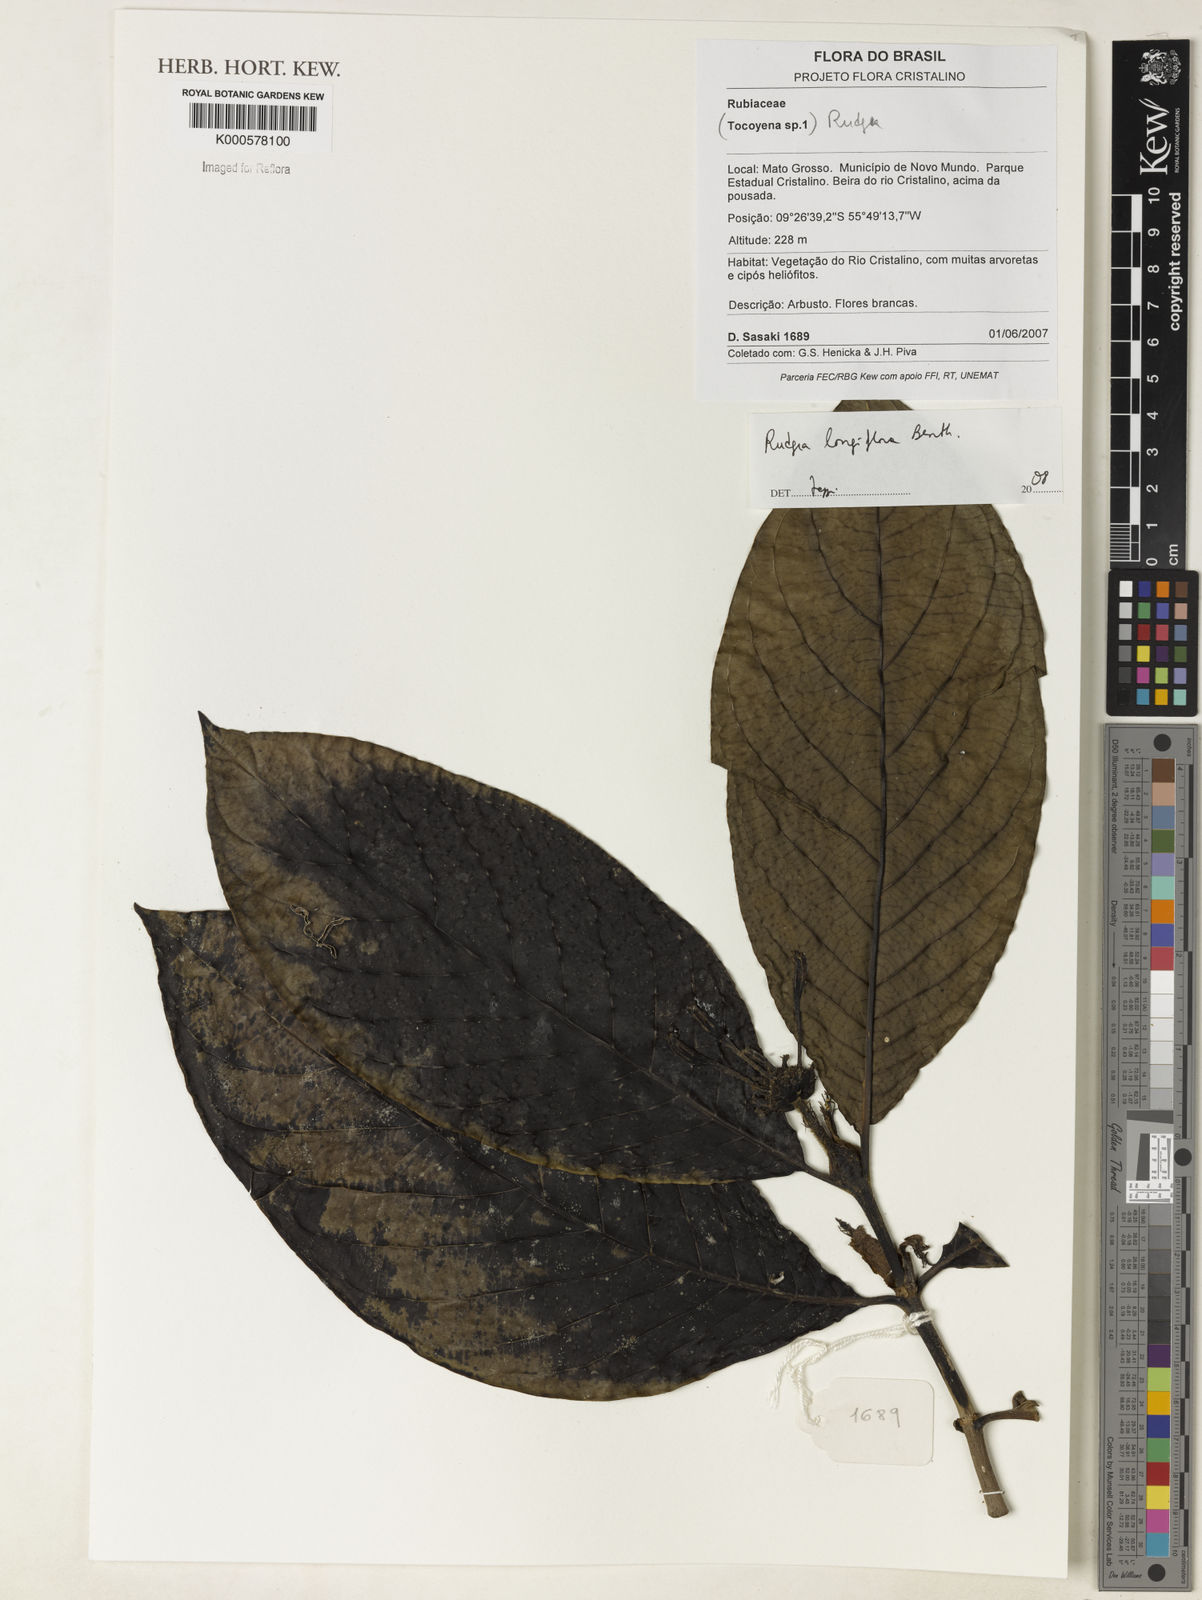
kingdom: Plantae
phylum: Tracheophyta
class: Magnoliopsida
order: Gentianales
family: Rubiaceae
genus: Rudgea
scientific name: Rudgea longiflora
